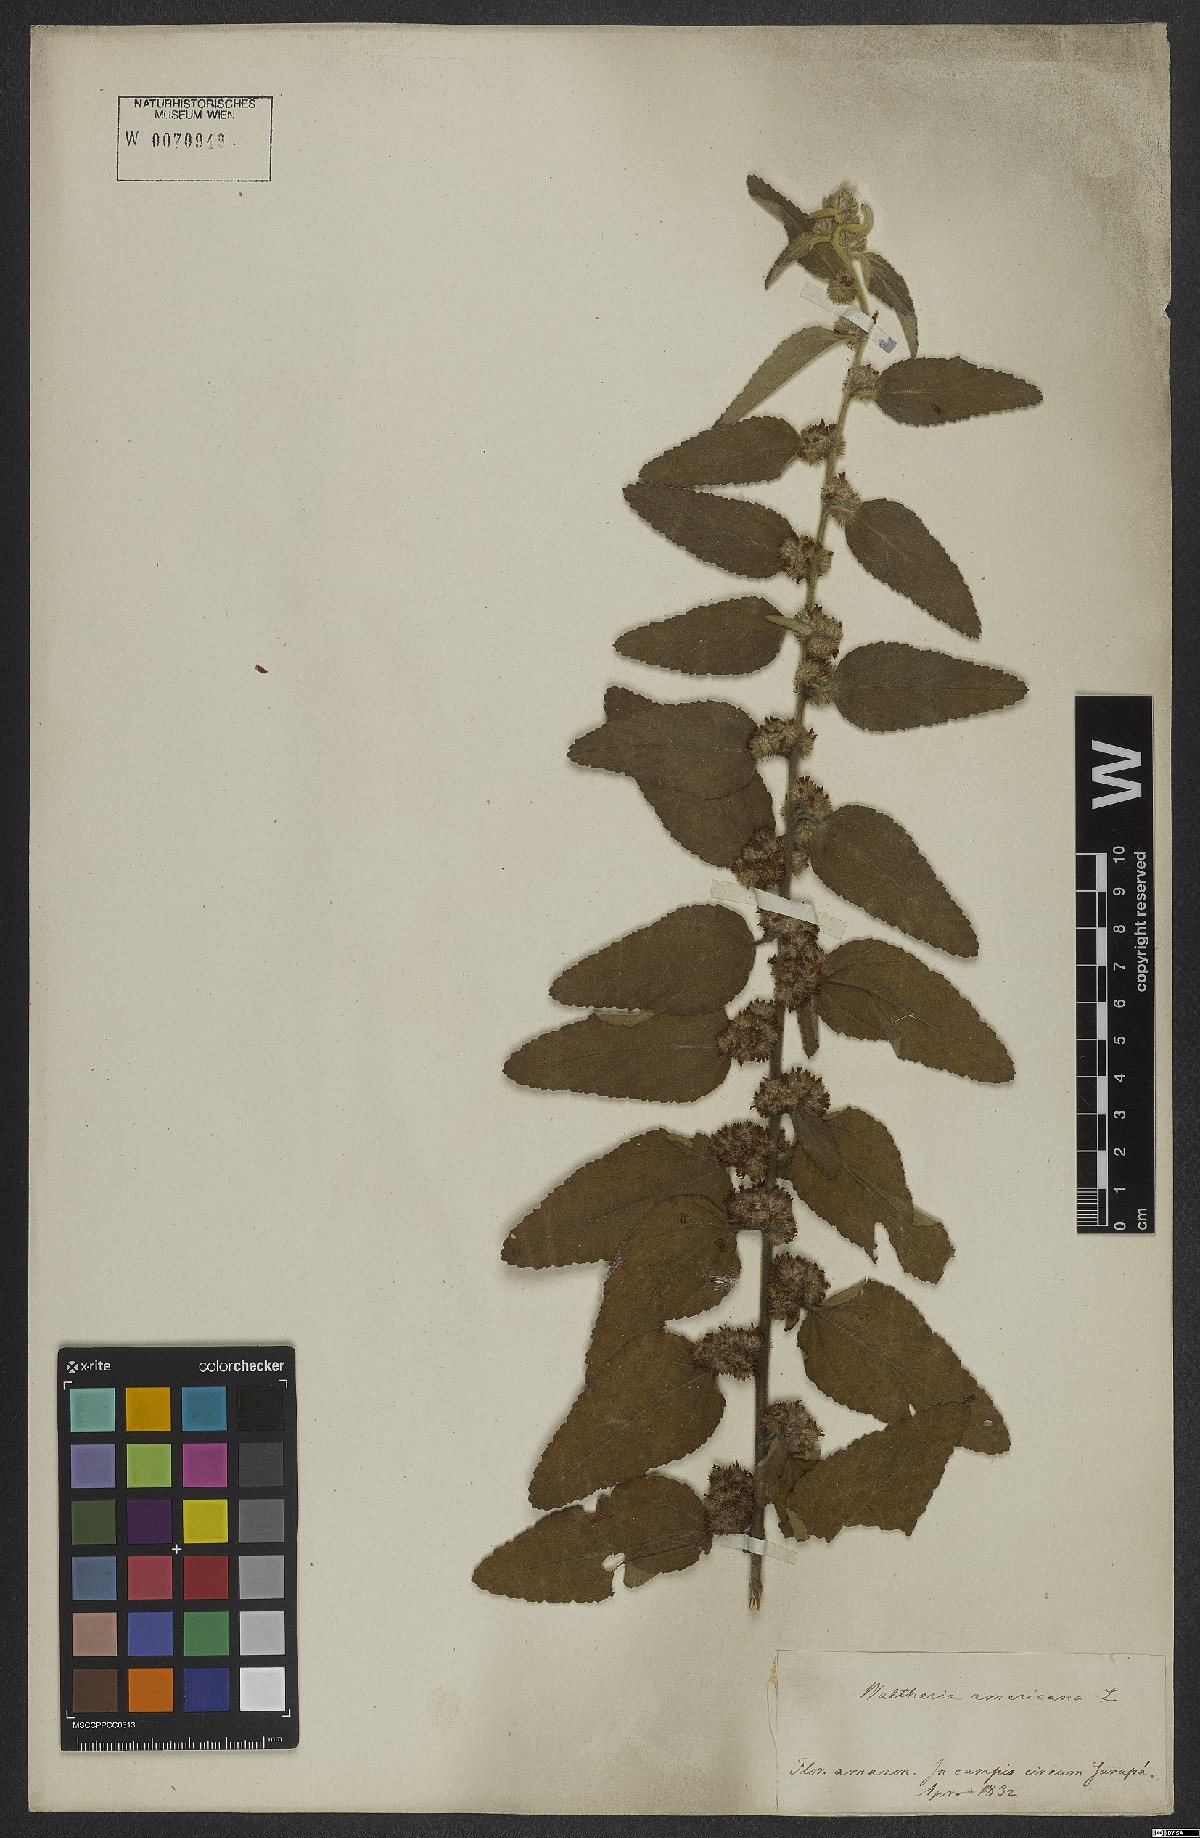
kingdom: Plantae
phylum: Tracheophyta
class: Magnoliopsida
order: Malvales
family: Malvaceae
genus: Waltheria
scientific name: Waltheria indica
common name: Leather-coat
